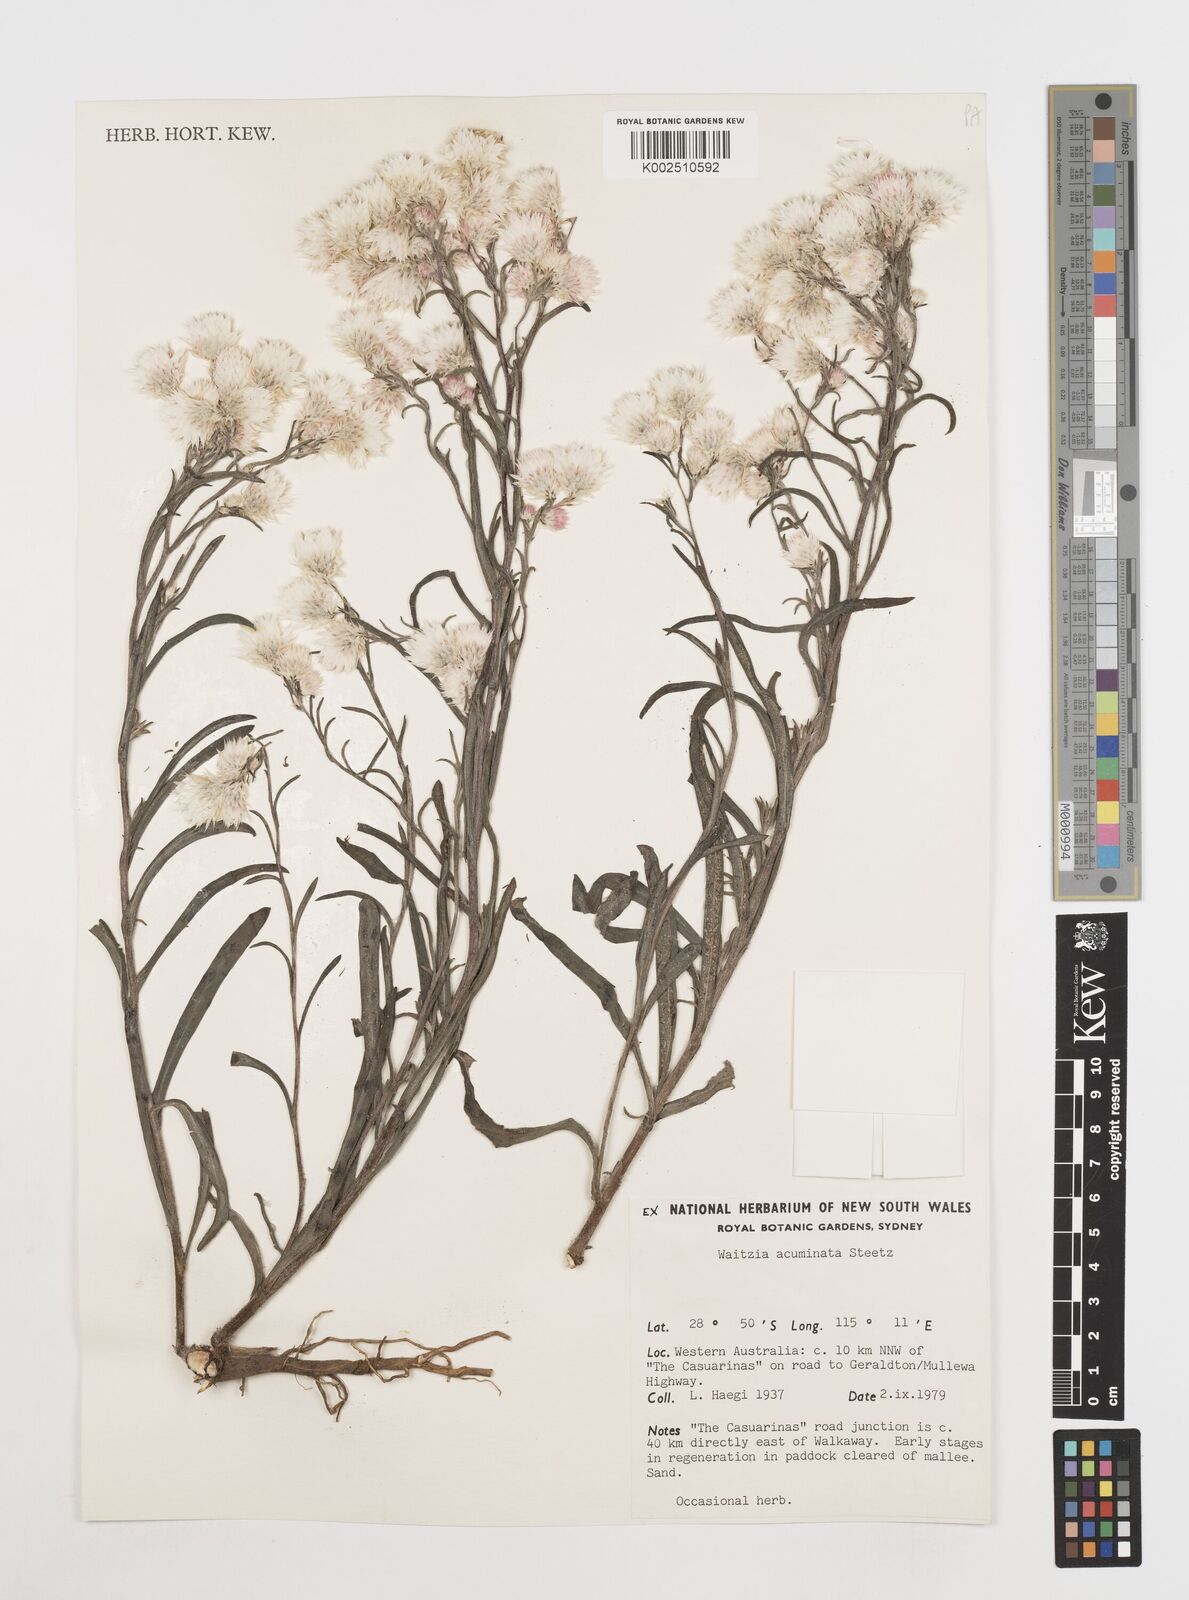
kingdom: Plantae
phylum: Tracheophyta
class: Magnoliopsida
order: Asterales
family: Asteraceae
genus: Waitzia
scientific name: Waitzia acuminata
